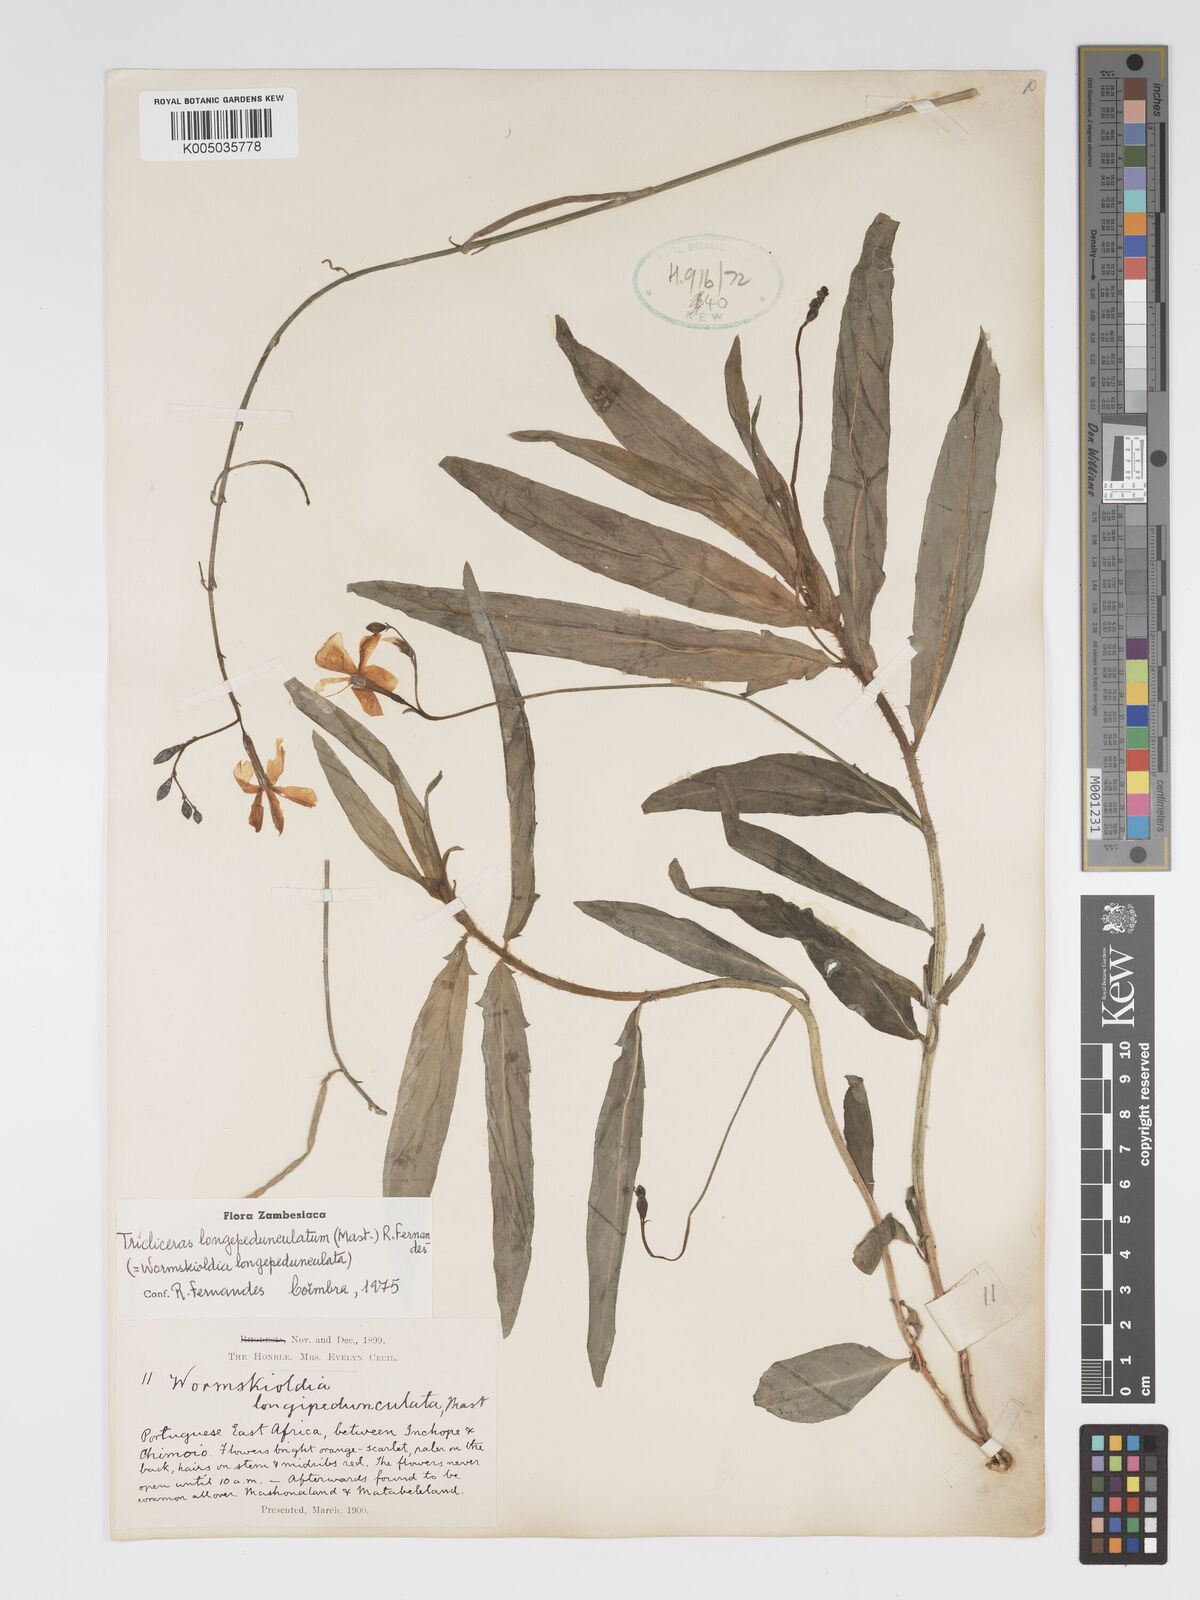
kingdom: Plantae
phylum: Tracheophyta
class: Magnoliopsida
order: Malpighiales
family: Turneraceae
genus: Tricliceras
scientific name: Tricliceras longepedunculatum
